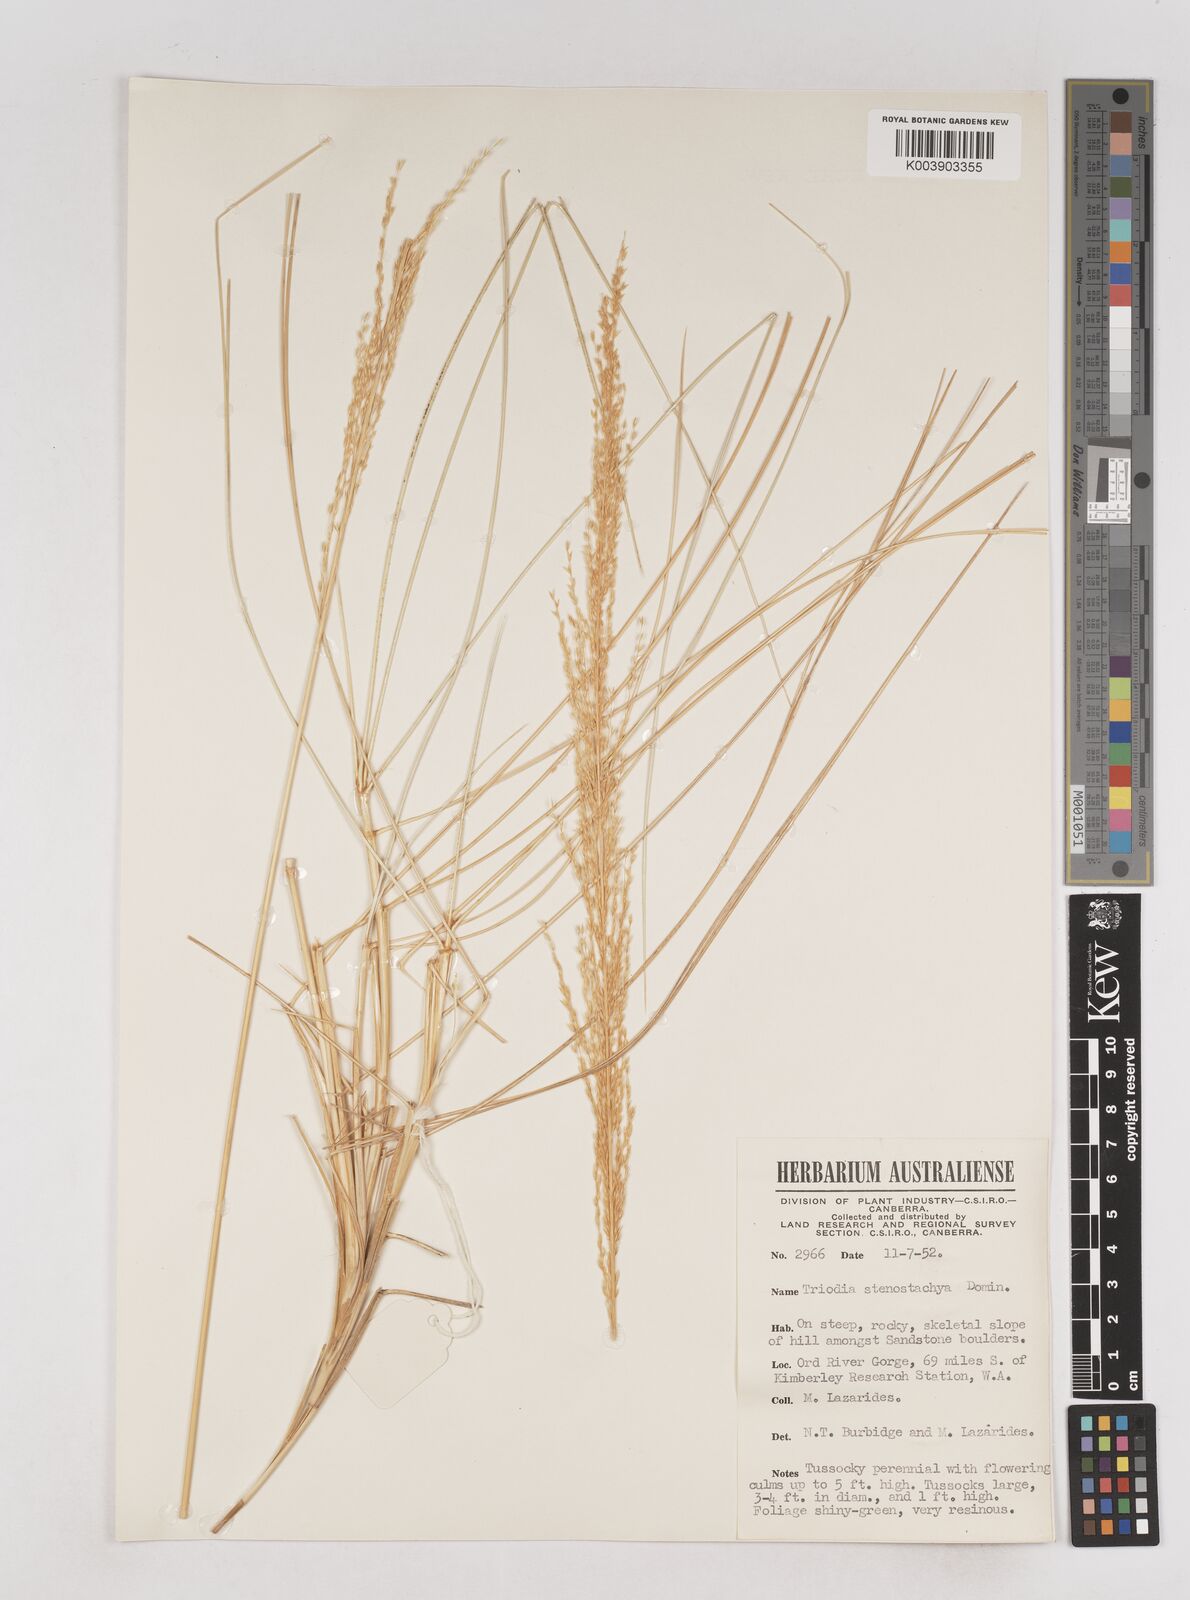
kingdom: Plantae
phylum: Tracheophyta
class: Liliopsida
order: Poales
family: Poaceae
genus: Triodia
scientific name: Triodia stenostachya
